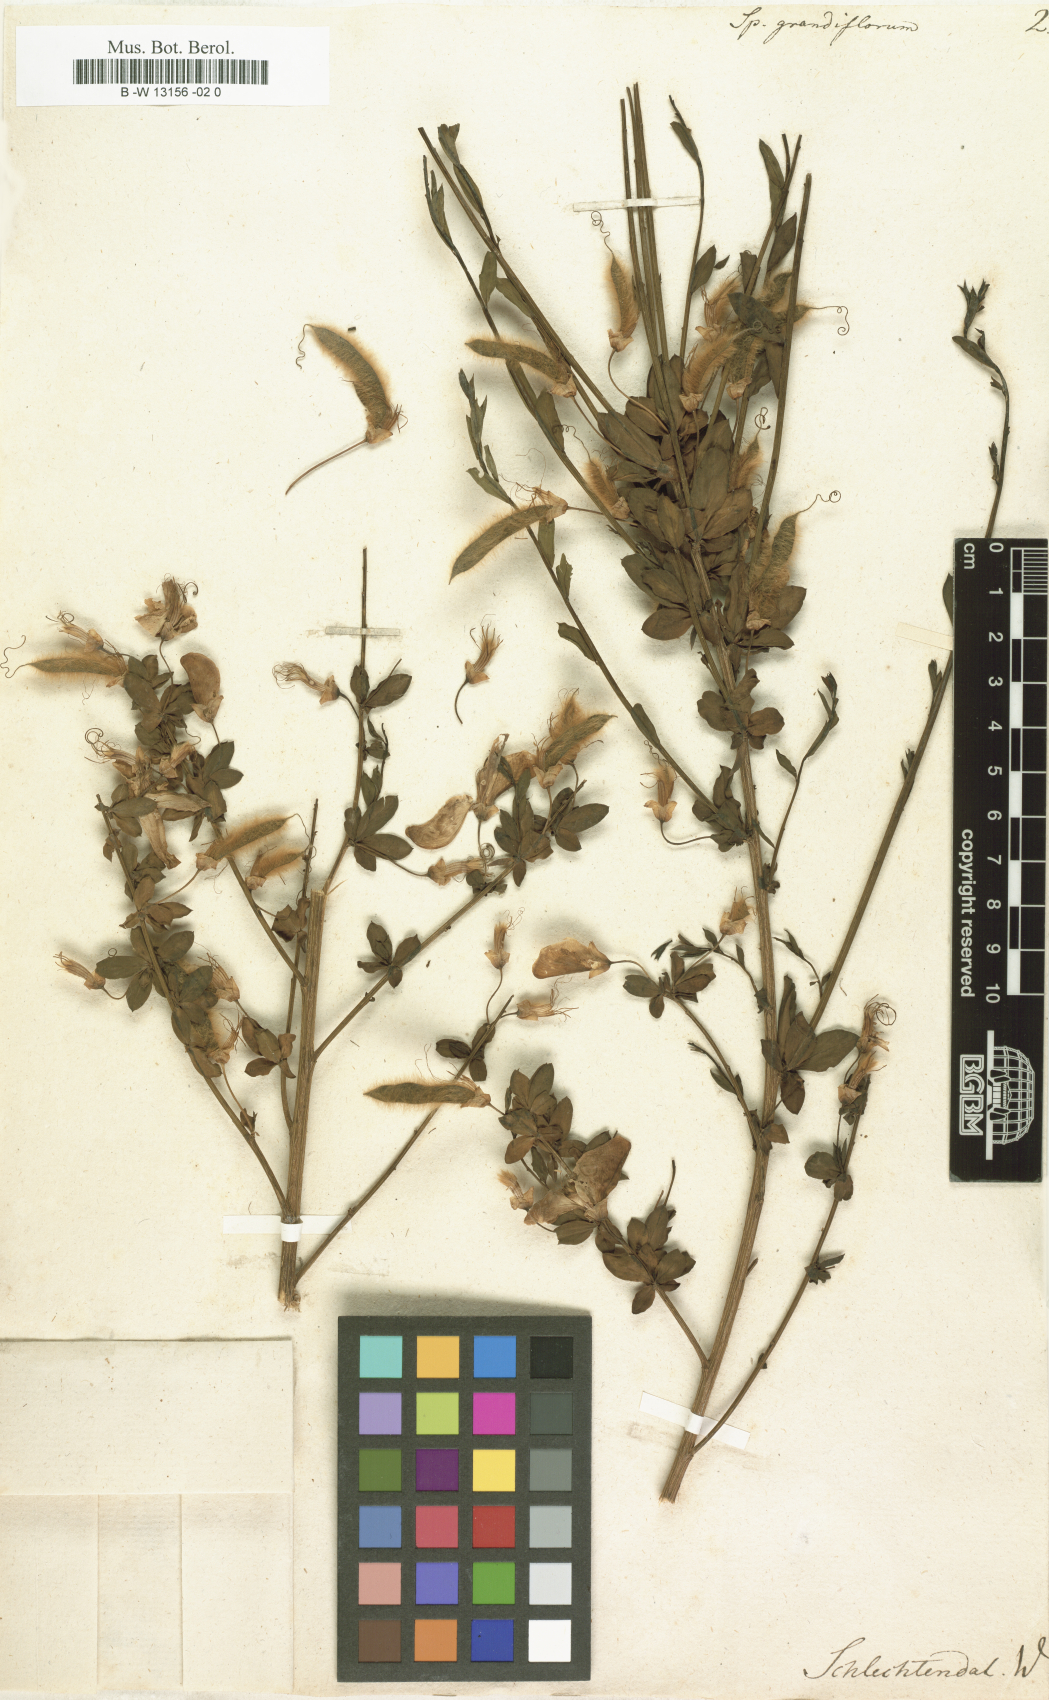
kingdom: Plantae
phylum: Tracheophyta
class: Magnoliopsida
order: Fabales
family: Fabaceae
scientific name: Fabaceae
